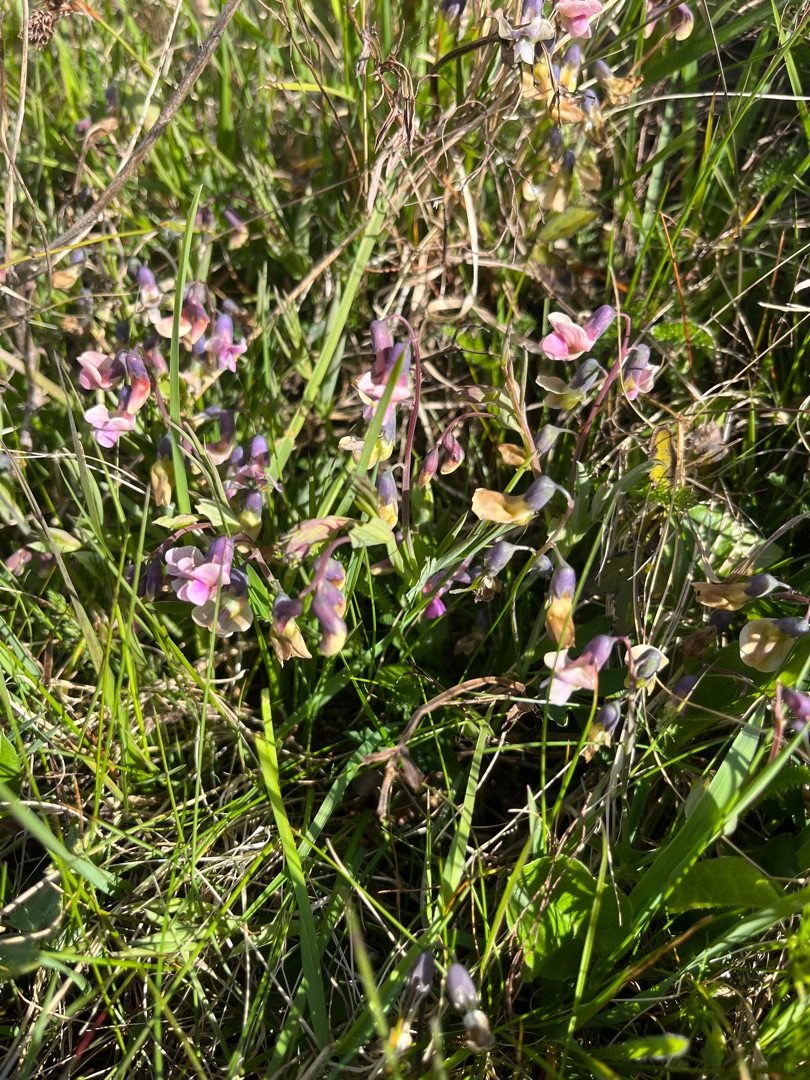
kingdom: Plantae
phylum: Tracheophyta
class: Magnoliopsida
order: Fabales
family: Fabaceae
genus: Lathyrus
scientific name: Lathyrus linifolius
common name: Krat-fladbælg
